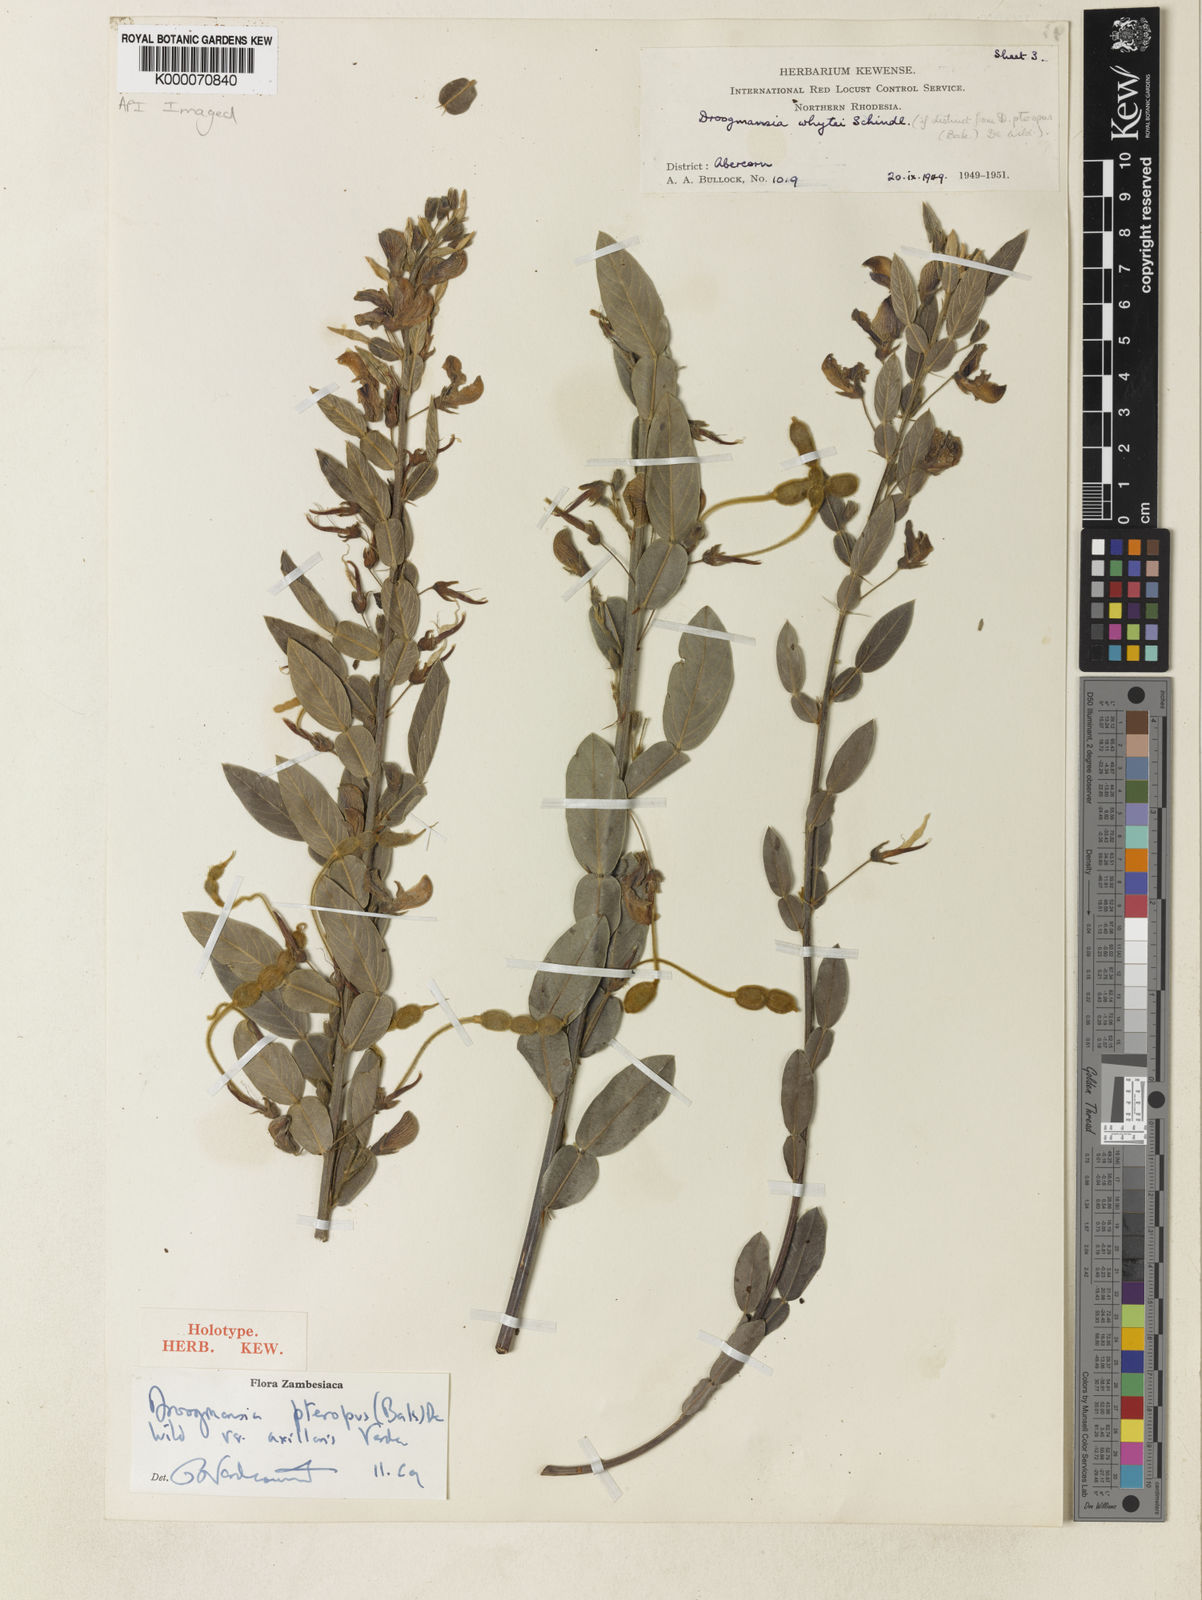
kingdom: Plantae
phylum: Tracheophyta
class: Magnoliopsida
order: Fabales
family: Fabaceae
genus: Droogmansia
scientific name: Droogmansia pteropus
